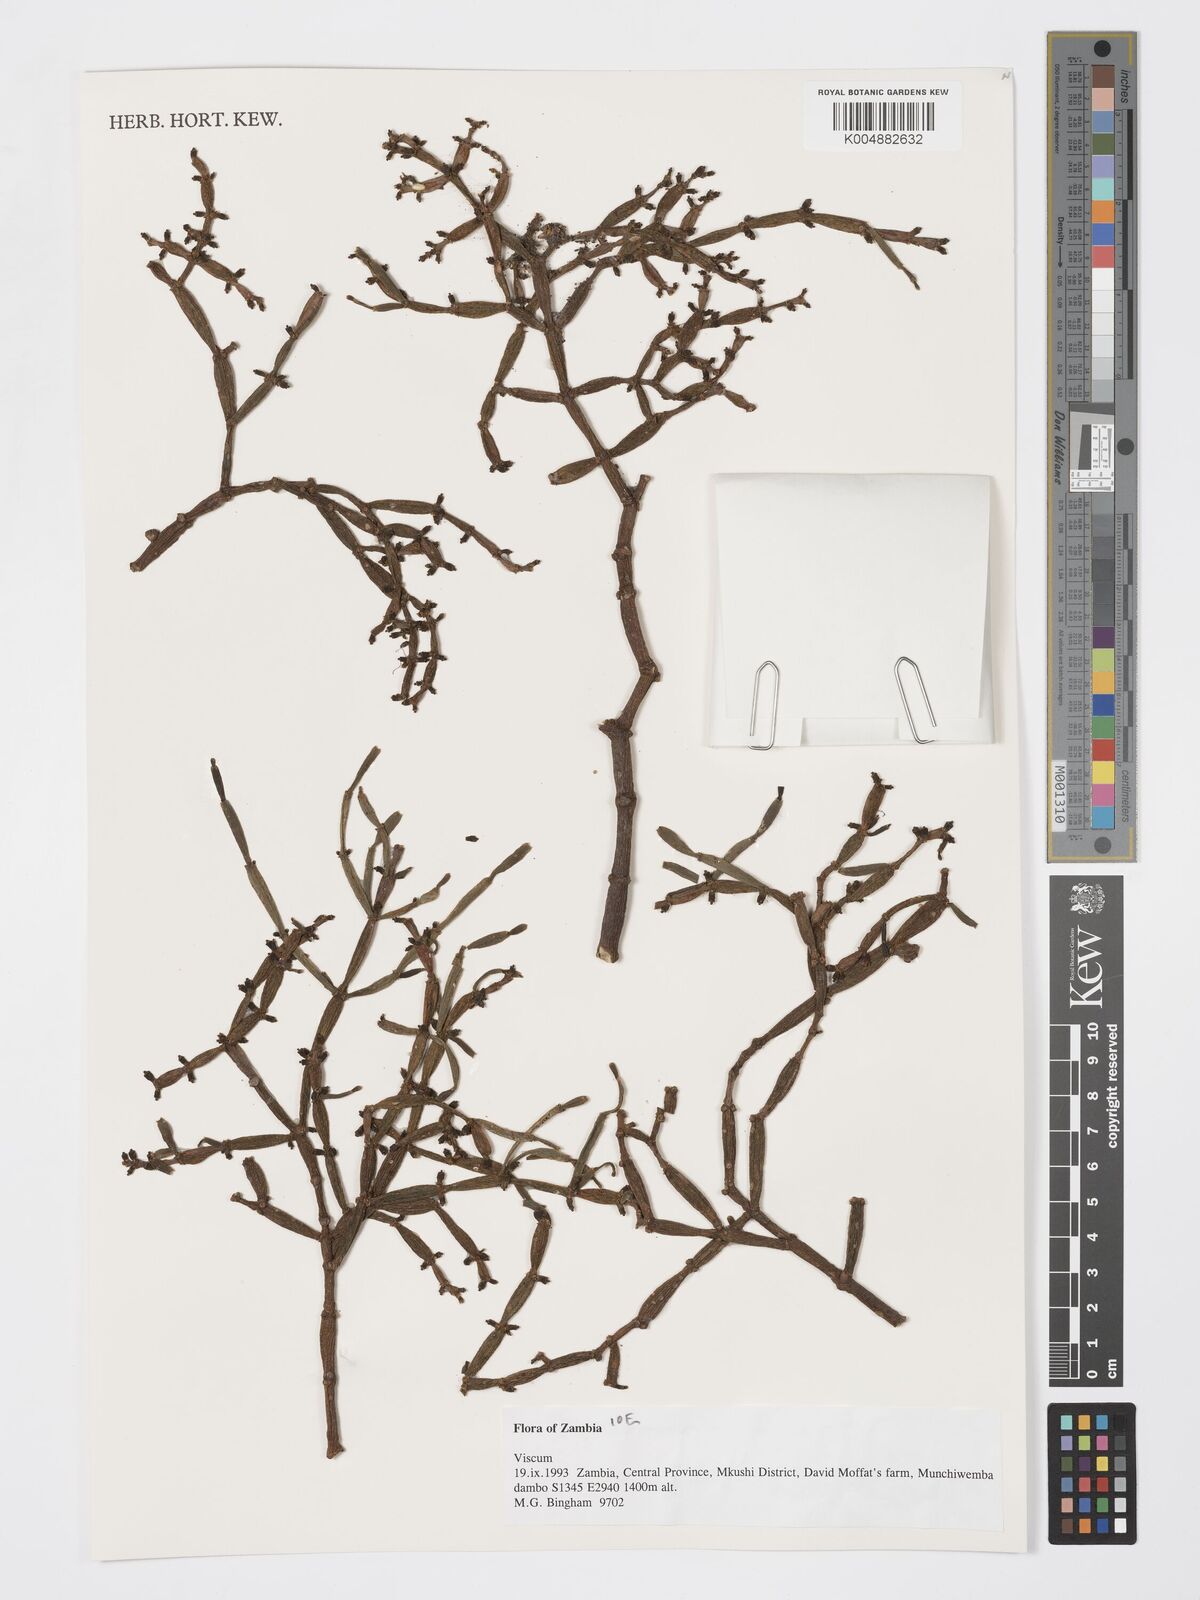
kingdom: Plantae
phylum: Tracheophyta
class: Magnoliopsida
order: Santalales
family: Viscaceae
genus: Viscum
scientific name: Viscum
